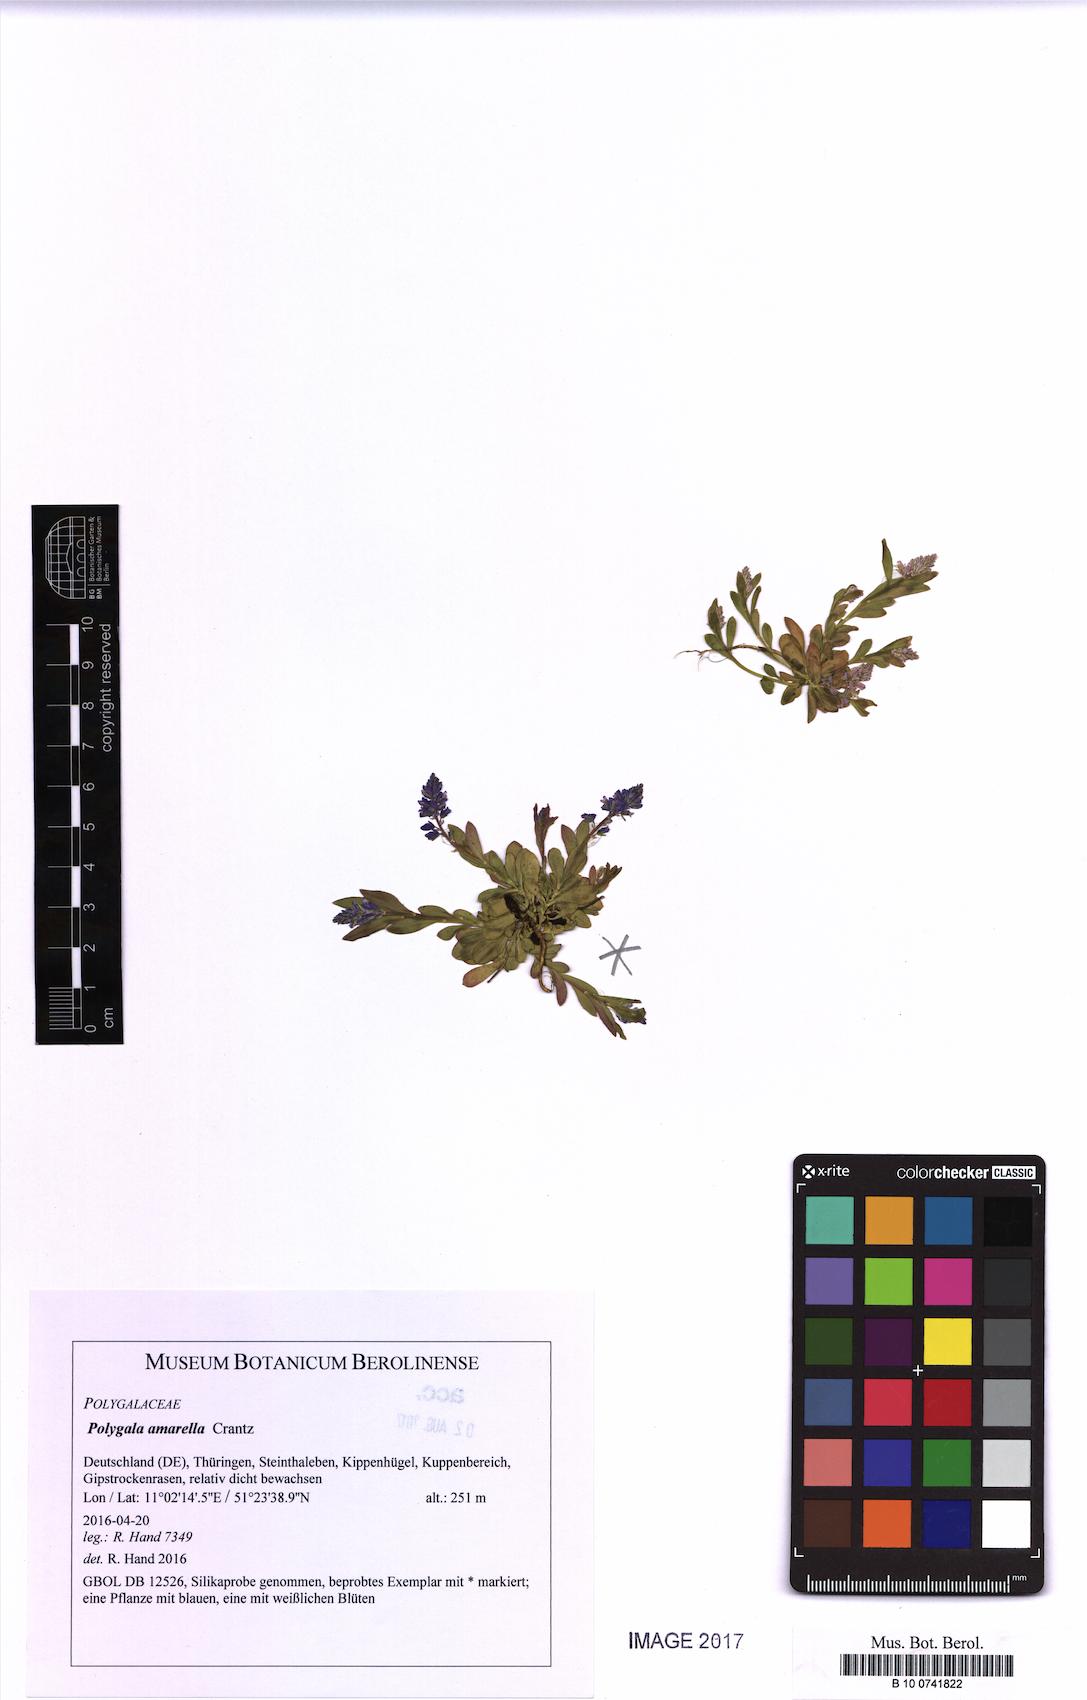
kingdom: Plantae
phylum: Tracheophyta
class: Magnoliopsida
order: Fabales
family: Polygalaceae
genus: Polygala
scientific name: Polygala amarella
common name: Dwarf milkwort
